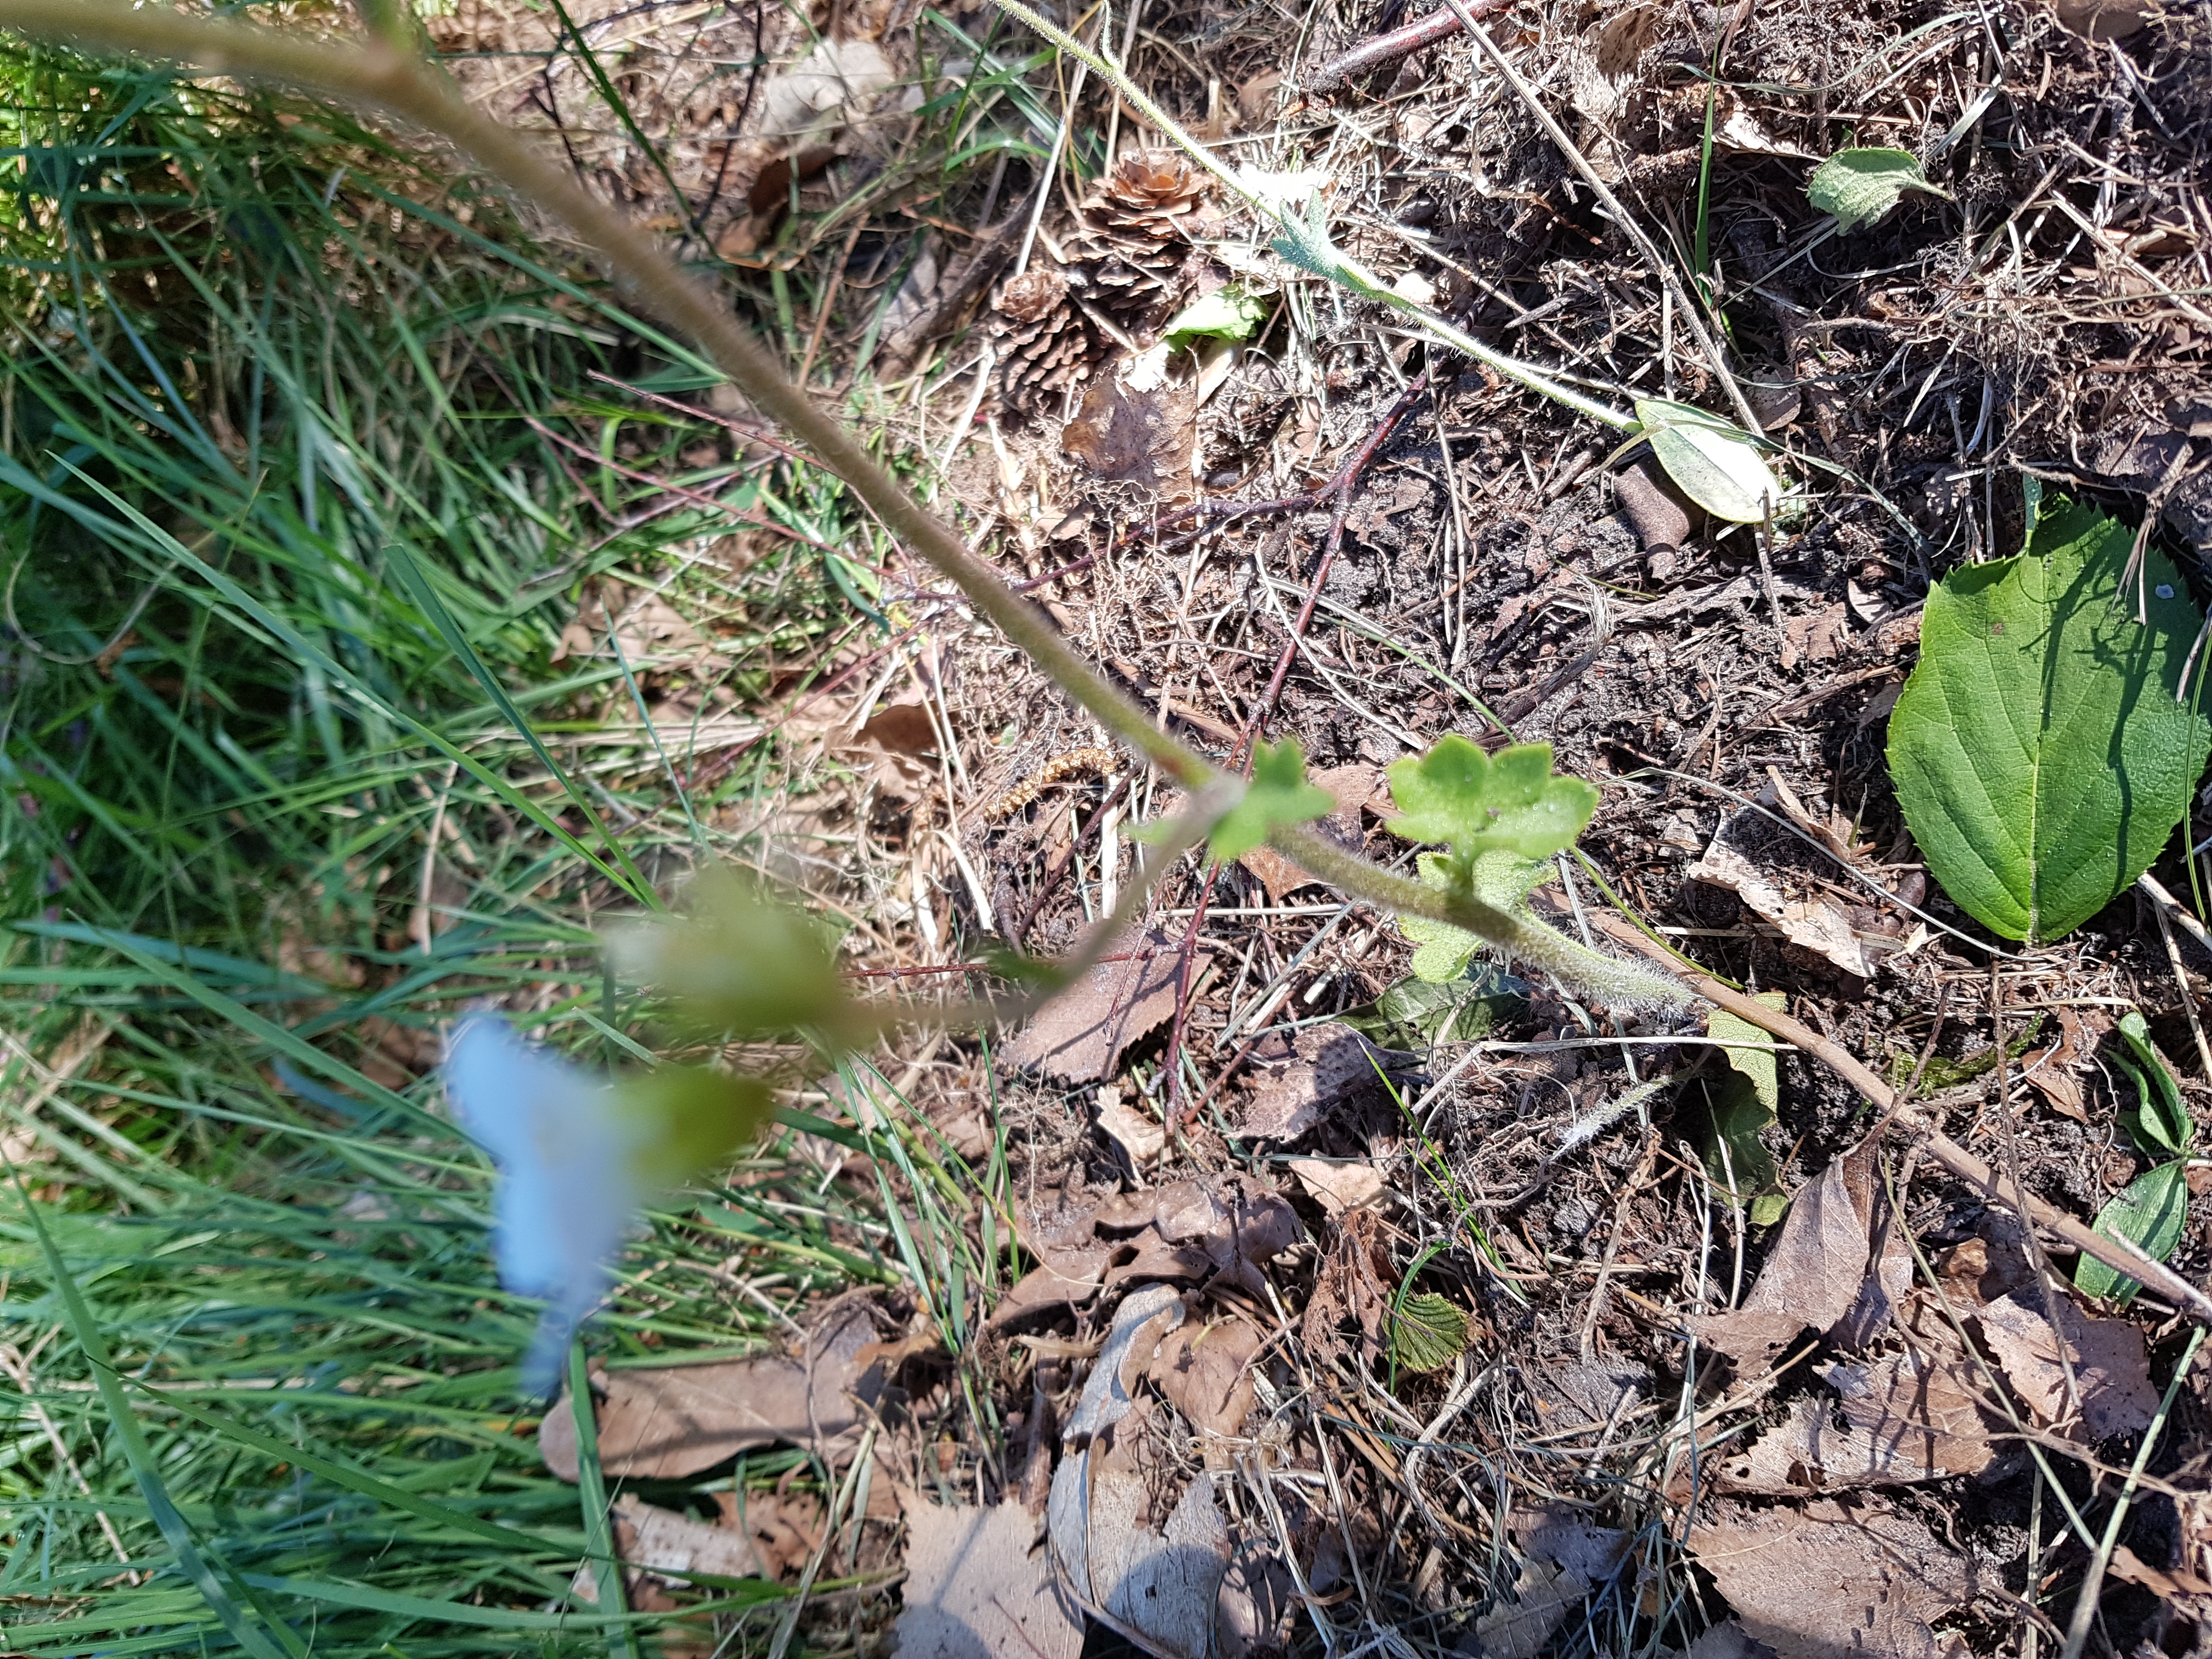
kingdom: Plantae
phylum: Tracheophyta
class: Magnoliopsida
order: Saxifragales
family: Saxifragaceae
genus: Saxifraga
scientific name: Saxifraga granulata
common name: Kornet stenbræk
